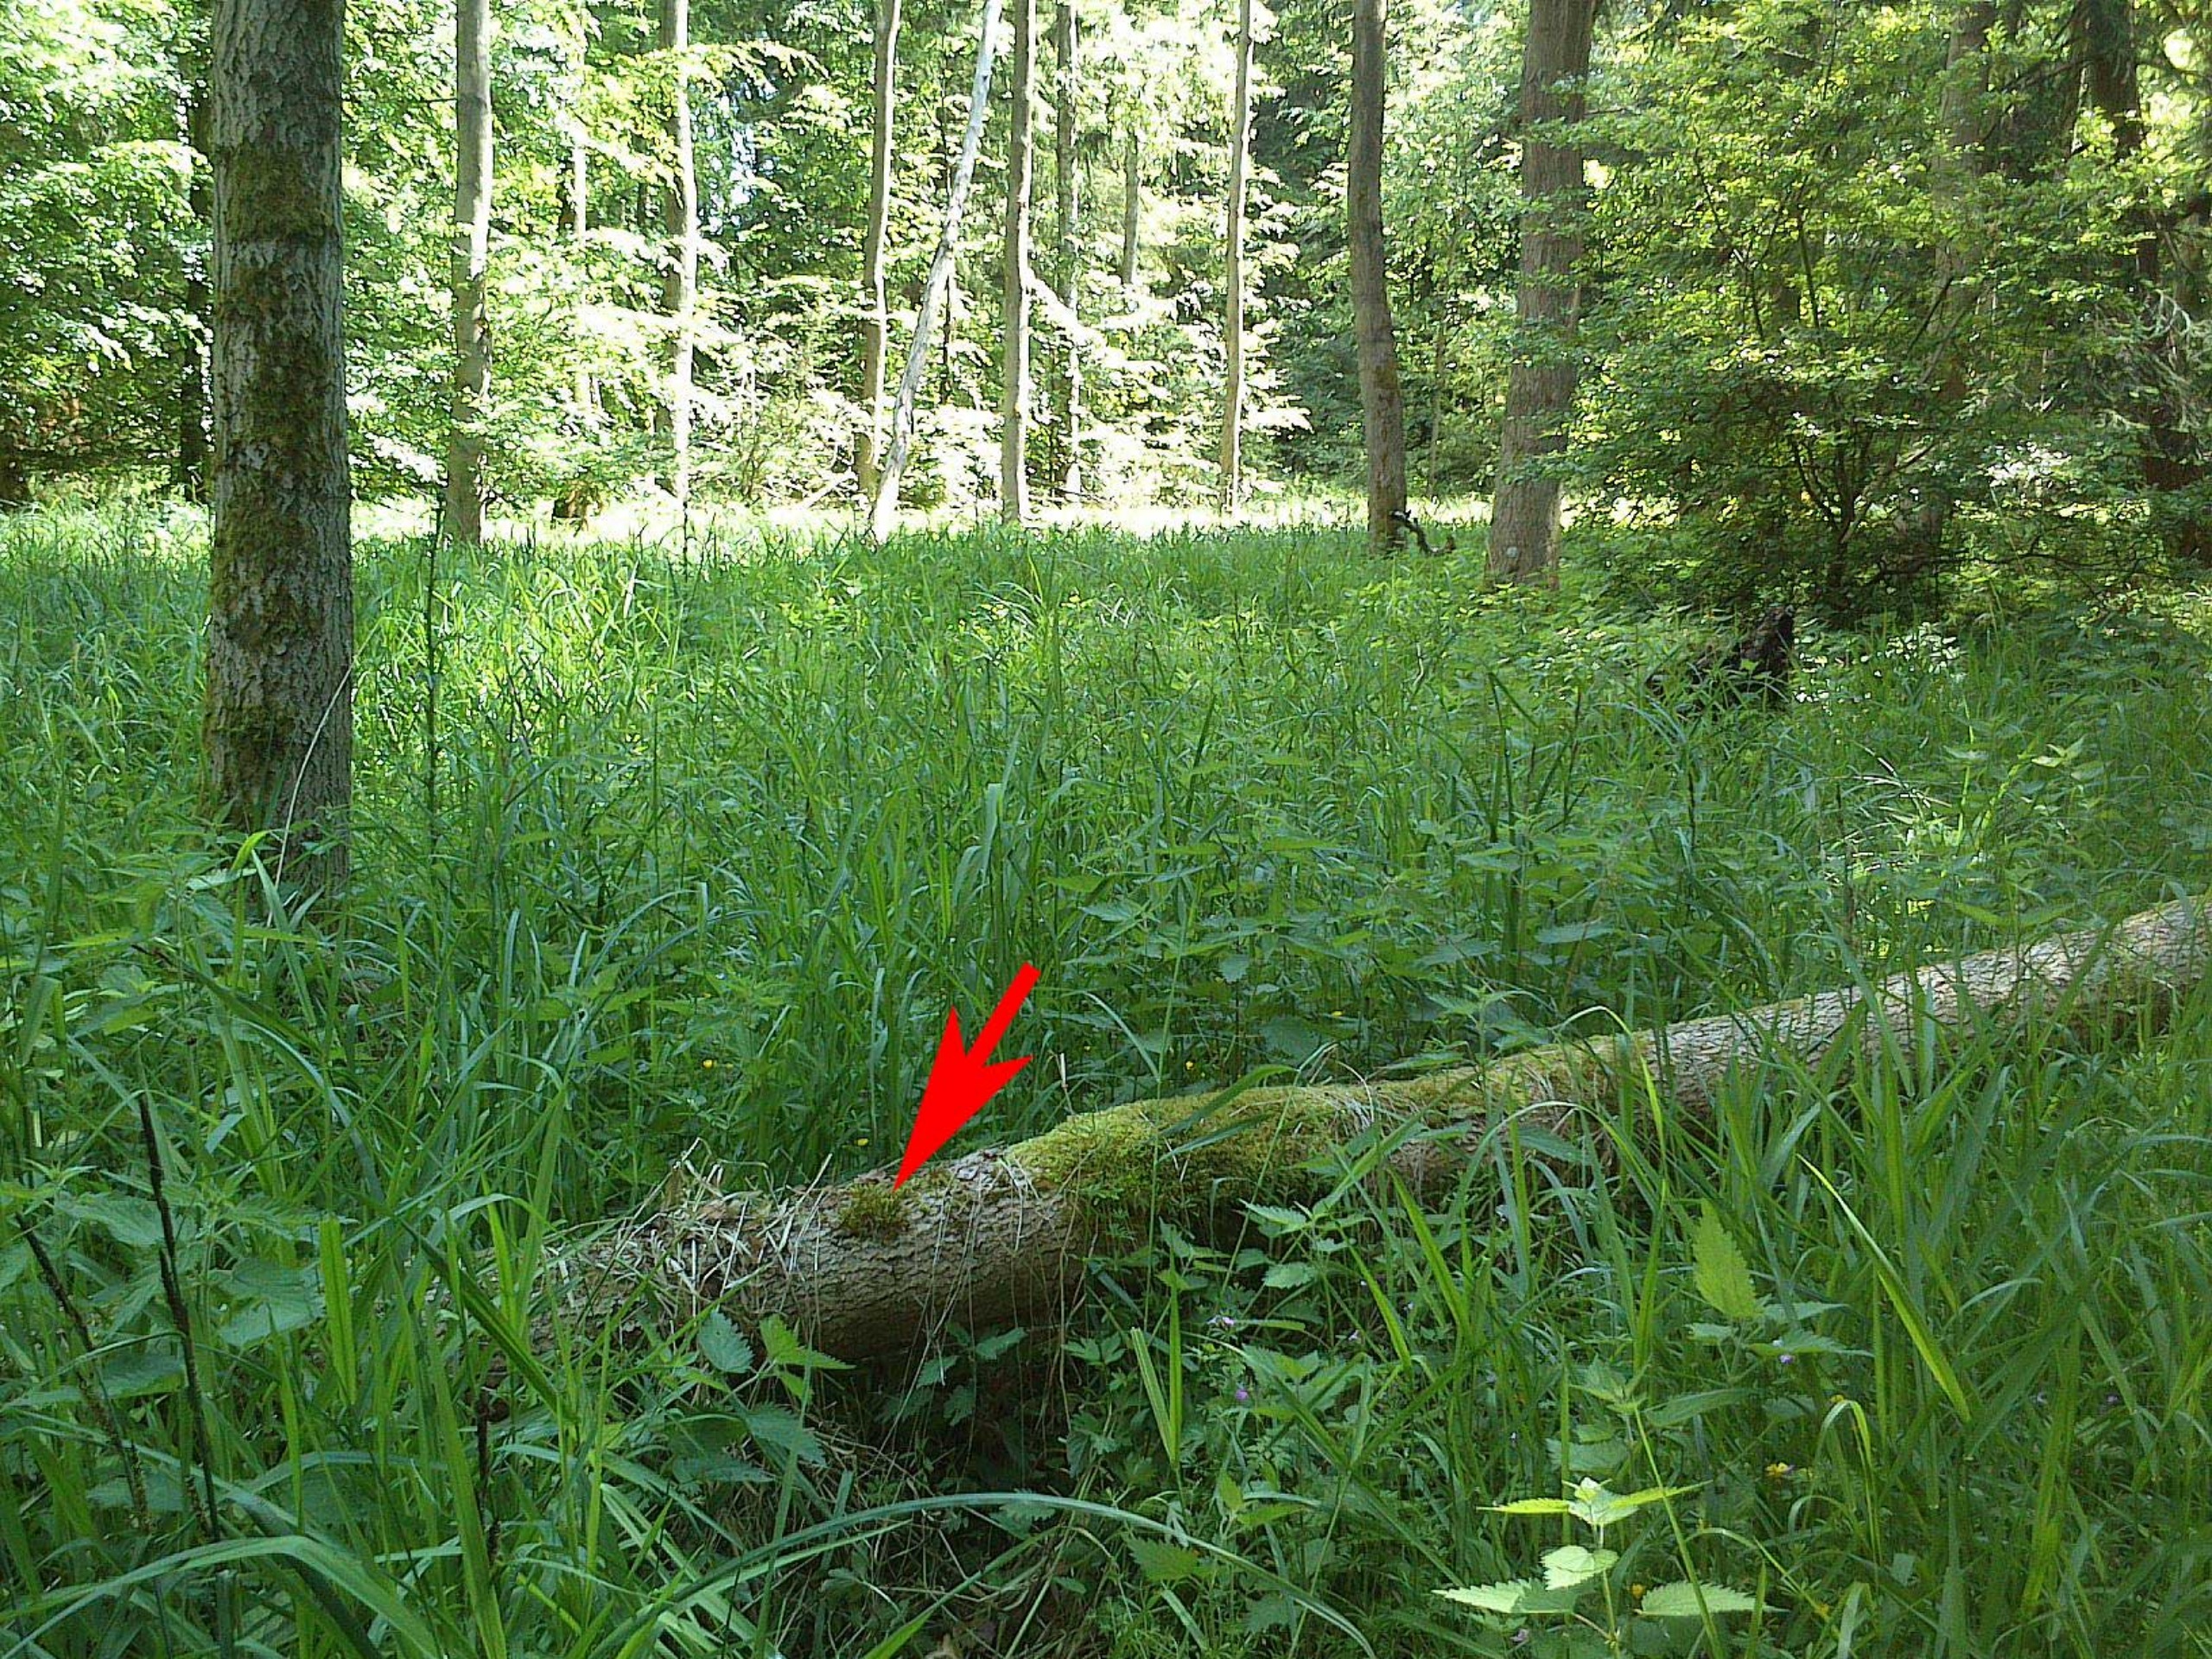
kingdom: Plantae
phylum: Bryophyta
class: Bryopsida
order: Hypnales
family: Antitrichiaceae
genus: Antitrichia
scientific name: Antitrichia curtipendula
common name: Åben krogtand
